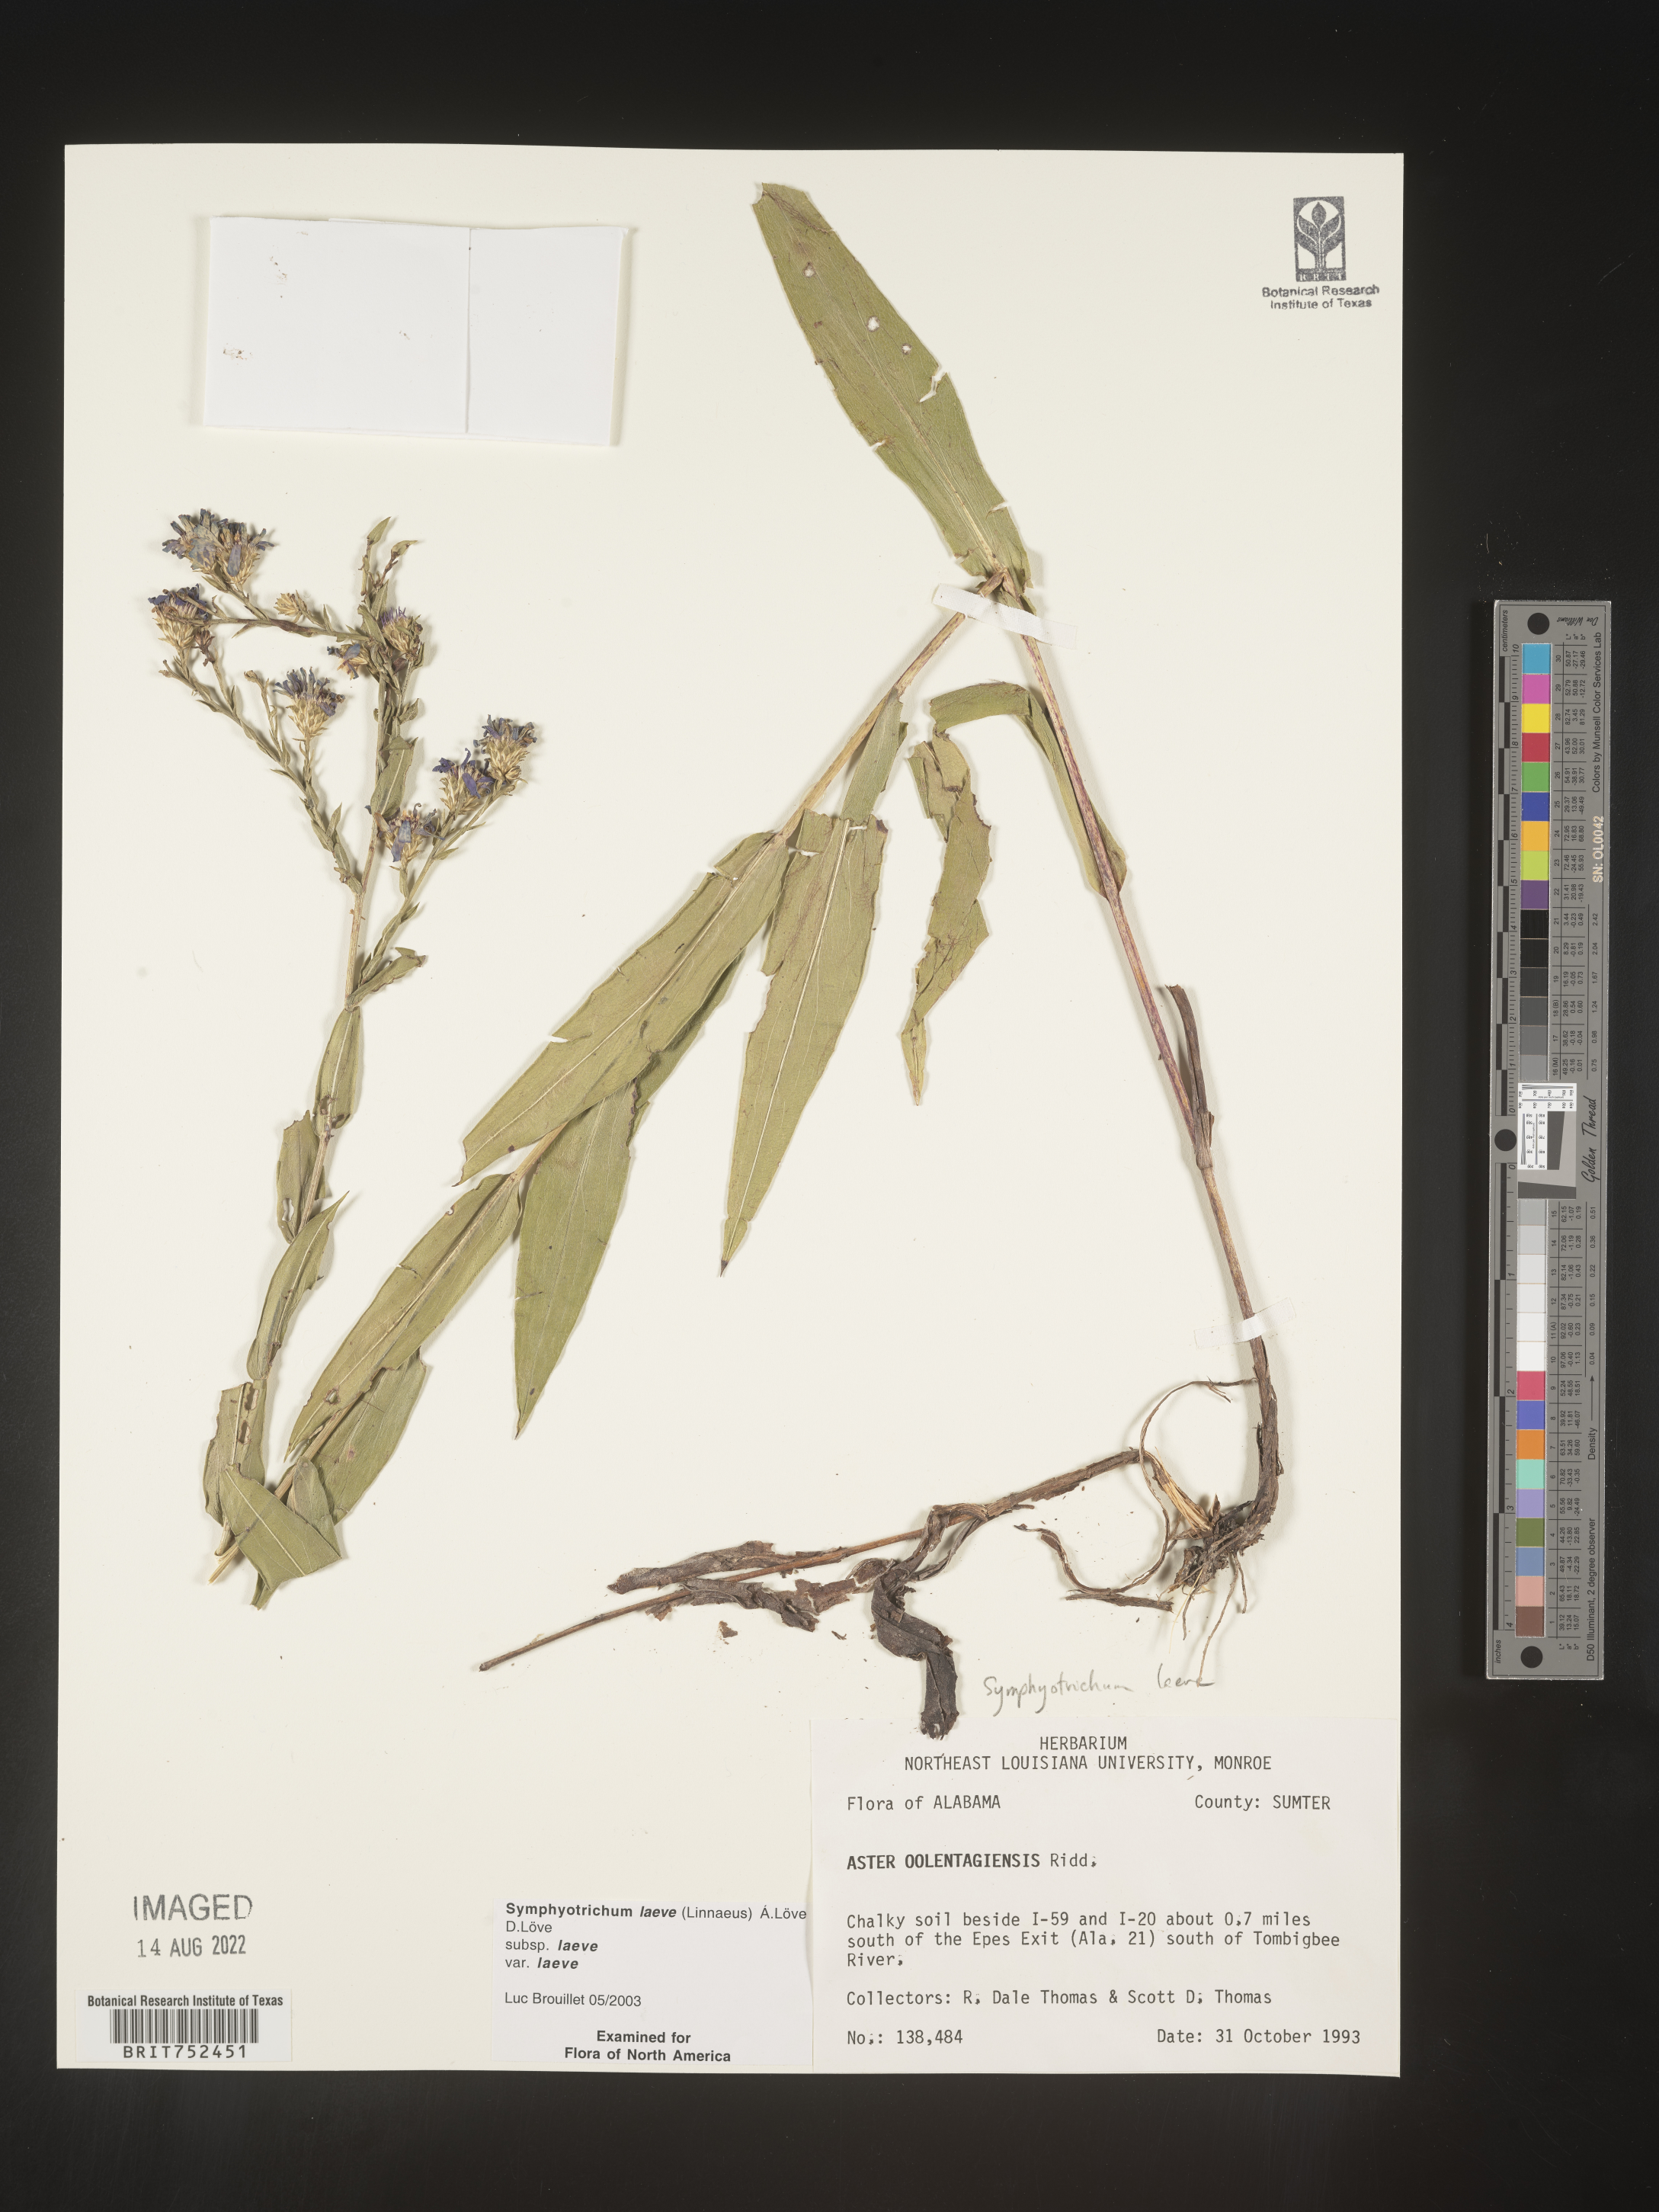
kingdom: Plantae
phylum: Tracheophyta
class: Magnoliopsida
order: Asterales
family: Asteraceae
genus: Symphyotrichum
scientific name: Symphyotrichum laeve
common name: Glaucous aster
